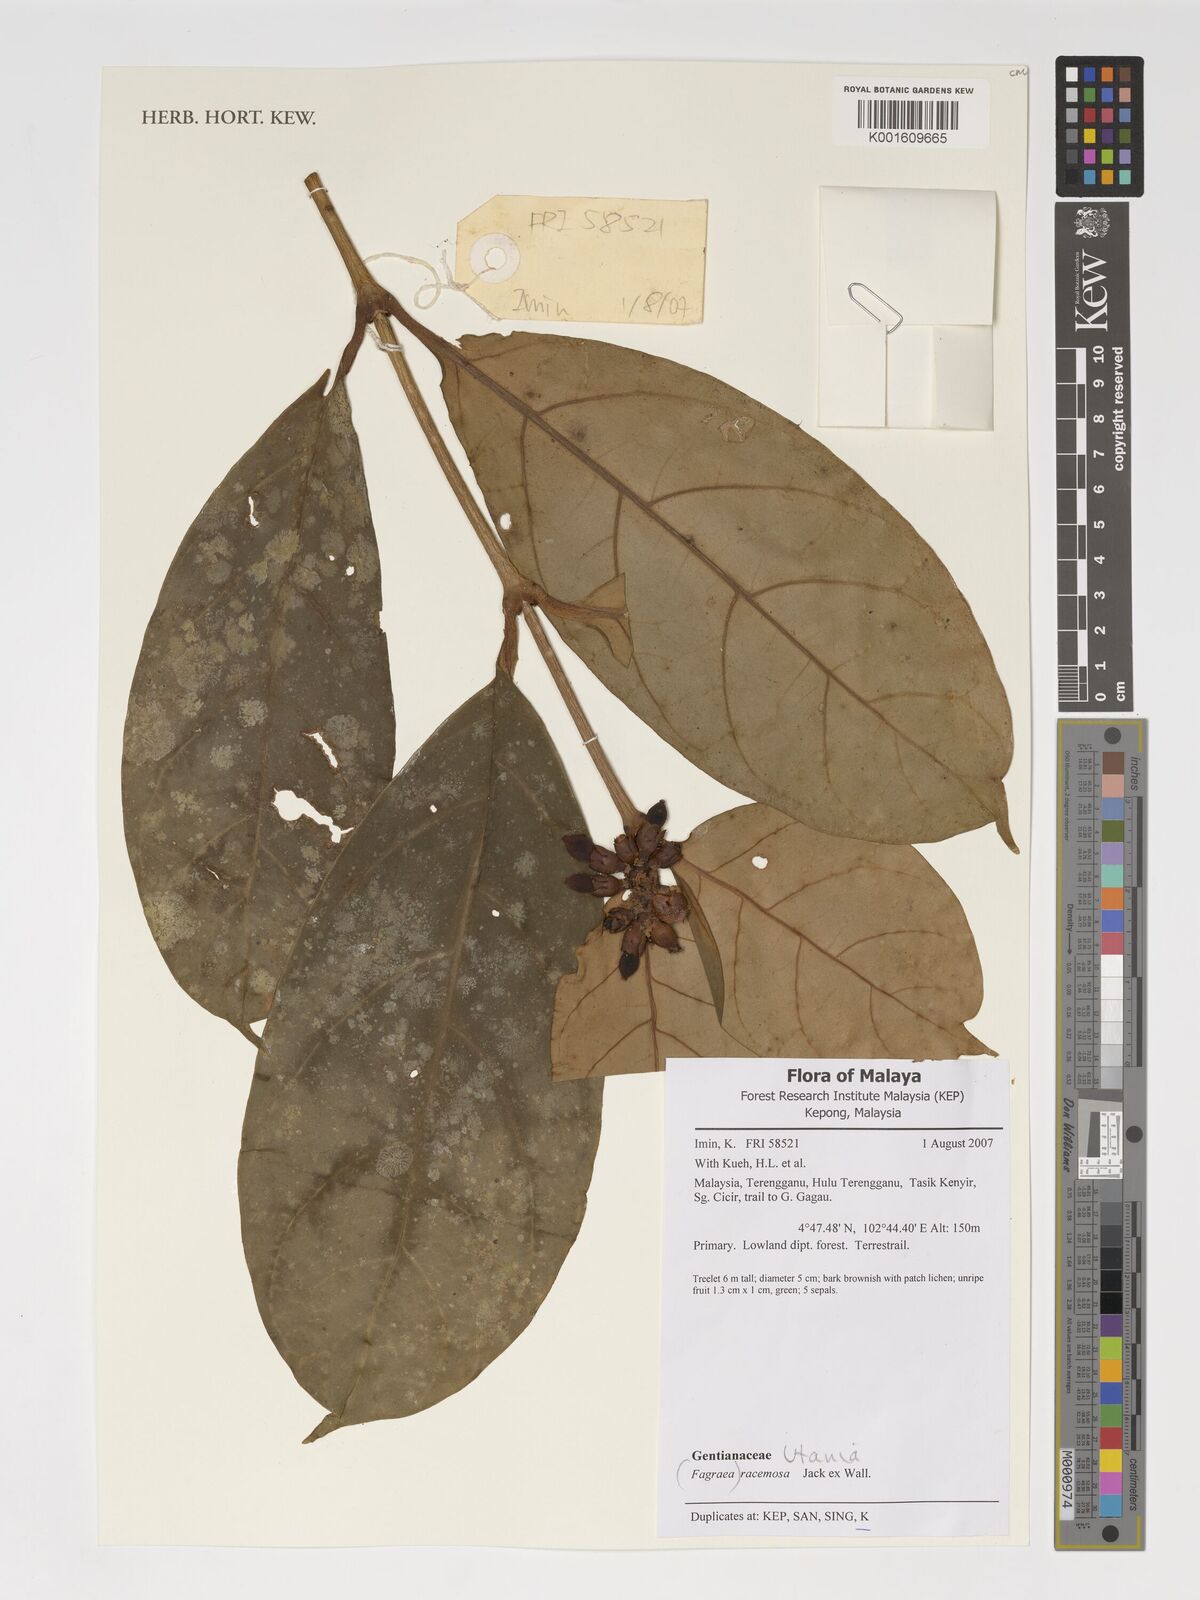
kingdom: Plantae
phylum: Tracheophyta
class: Magnoliopsida
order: Gentianales
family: Gentianaceae
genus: Utania
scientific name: Utania racemosa
